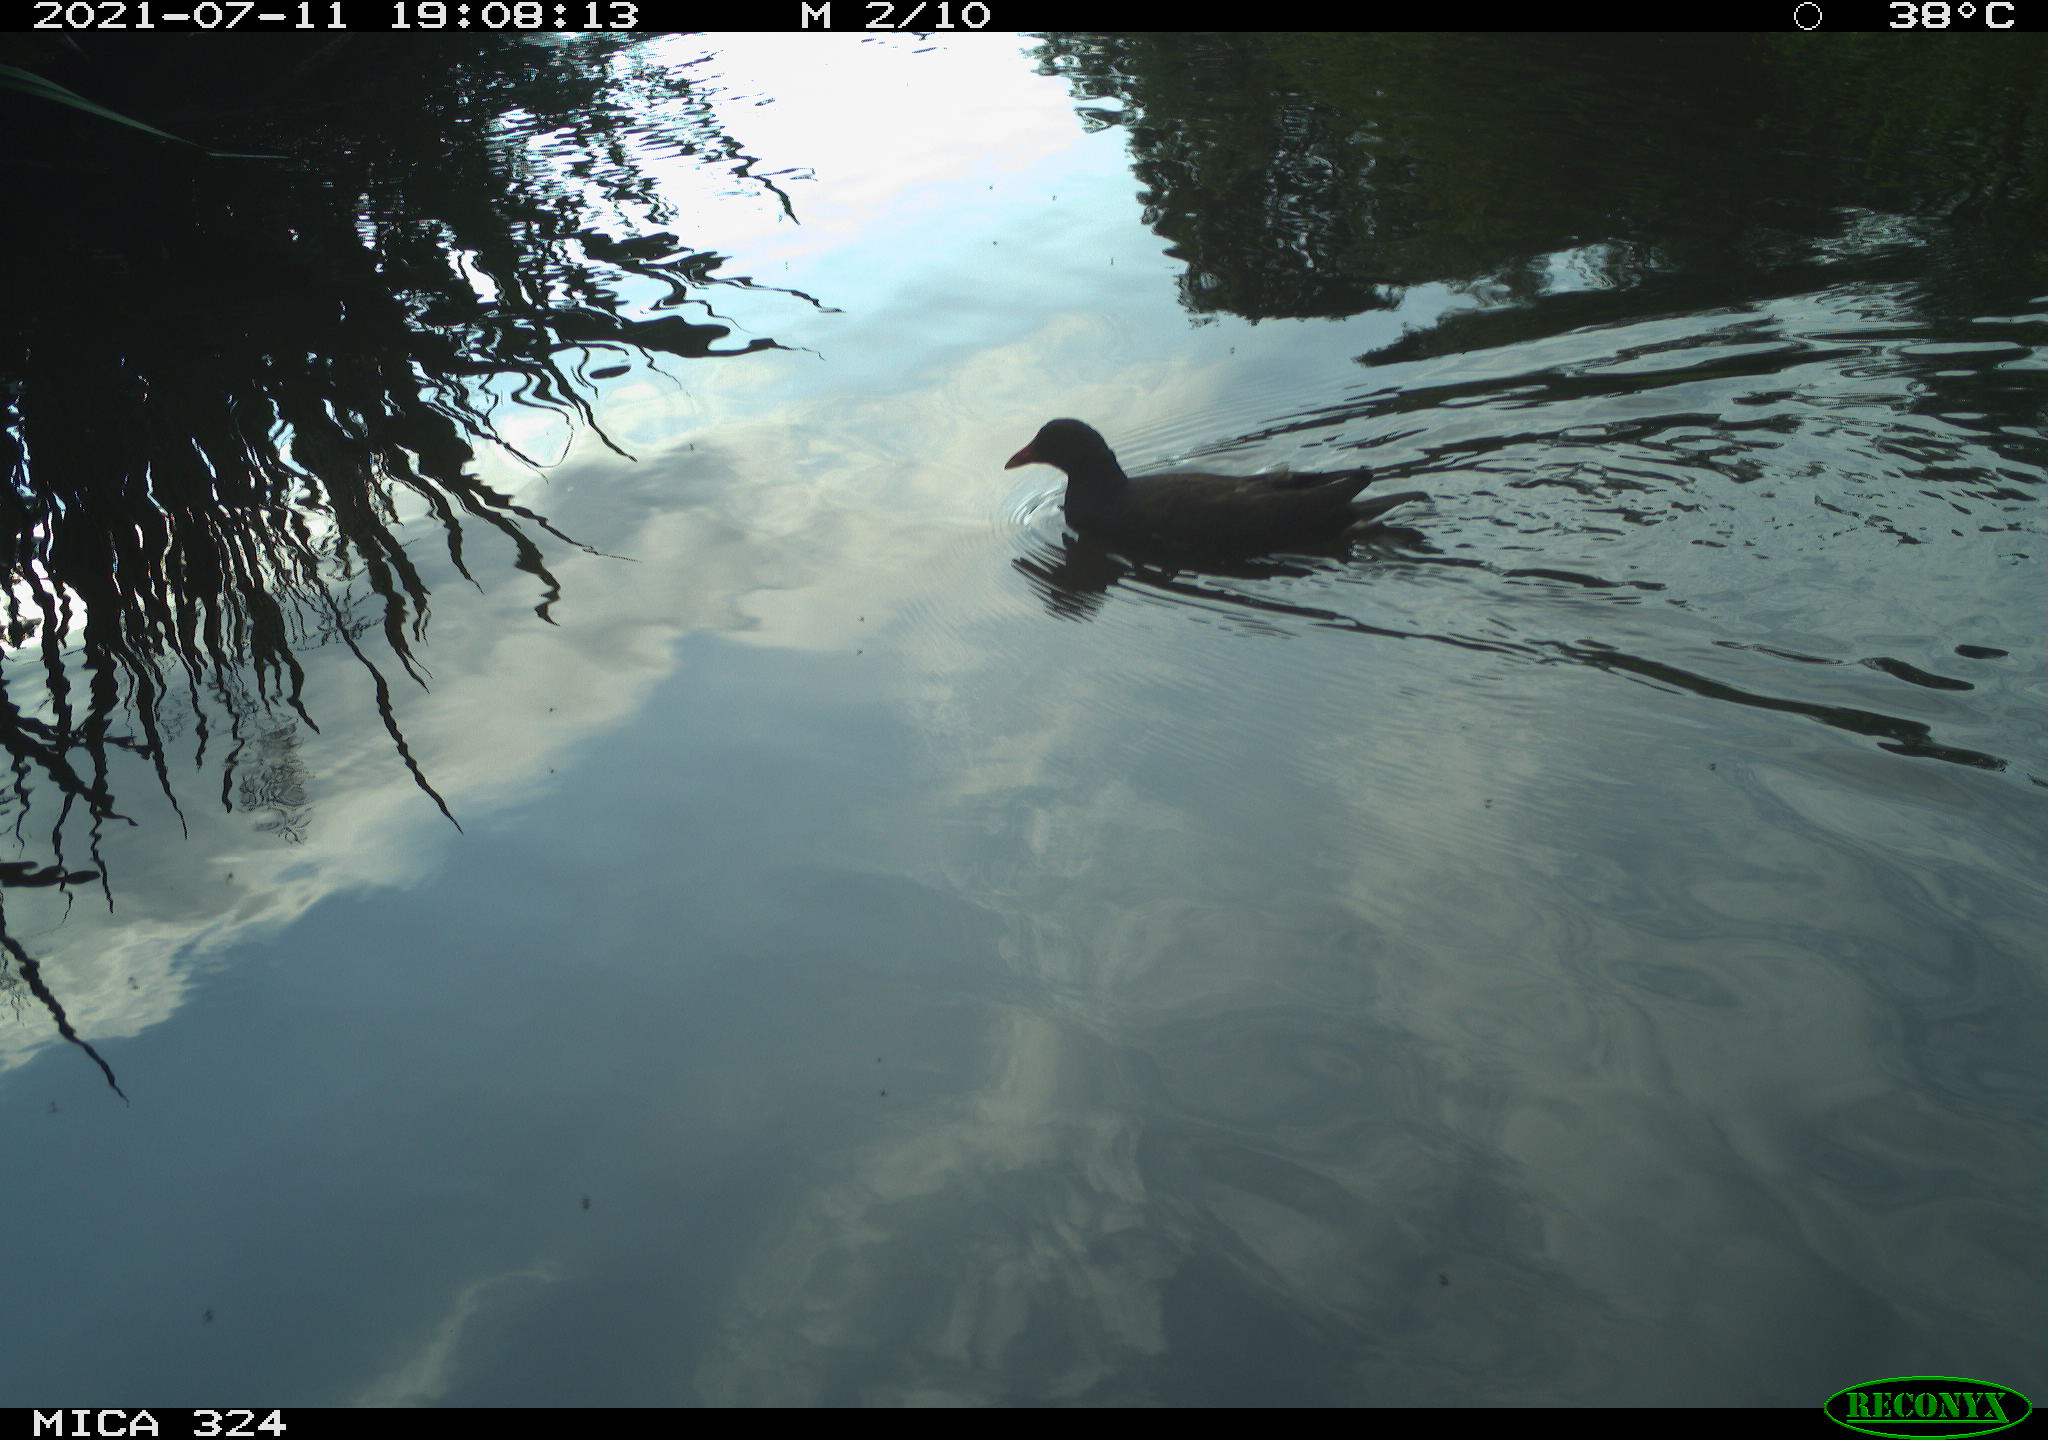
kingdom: Animalia
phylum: Chordata
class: Aves
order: Gruiformes
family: Rallidae
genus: Gallinula
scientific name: Gallinula chloropus
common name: Common moorhen
